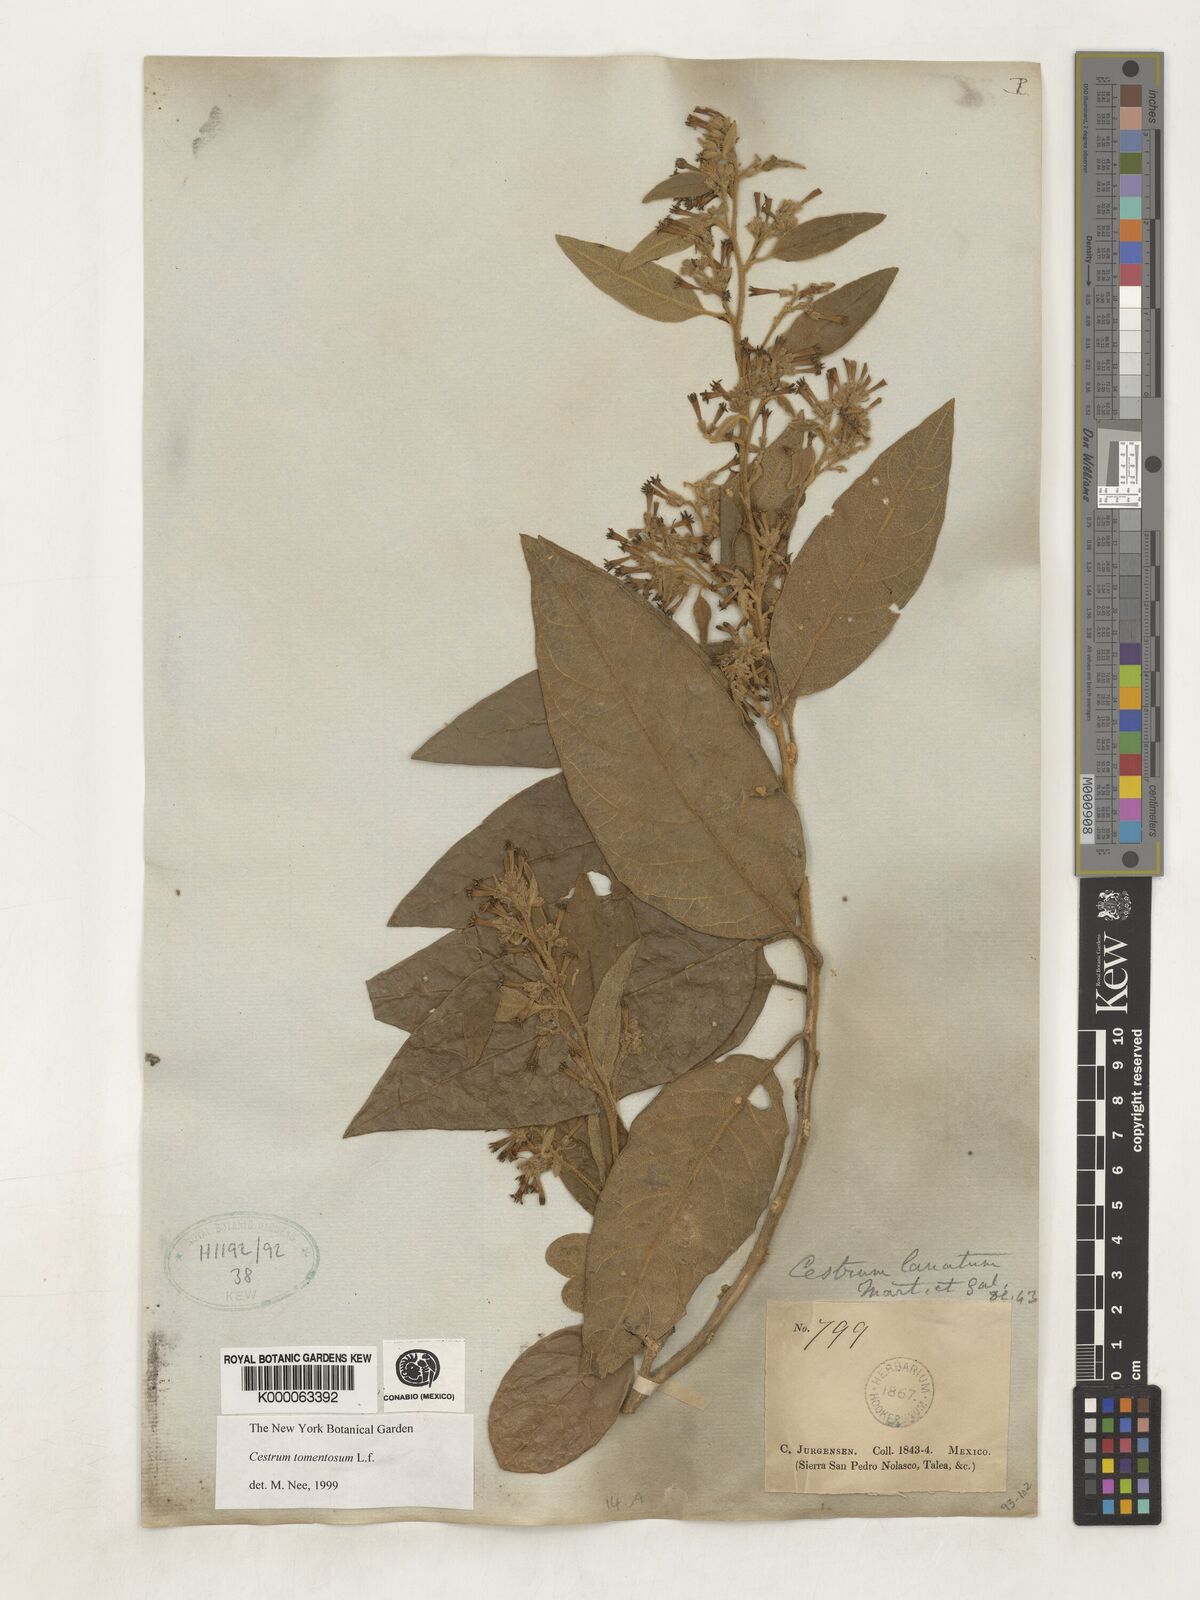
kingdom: Plantae
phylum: Tracheophyta
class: Magnoliopsida
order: Solanales
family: Solanaceae
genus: Cestrum
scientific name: Cestrum tomentosum
